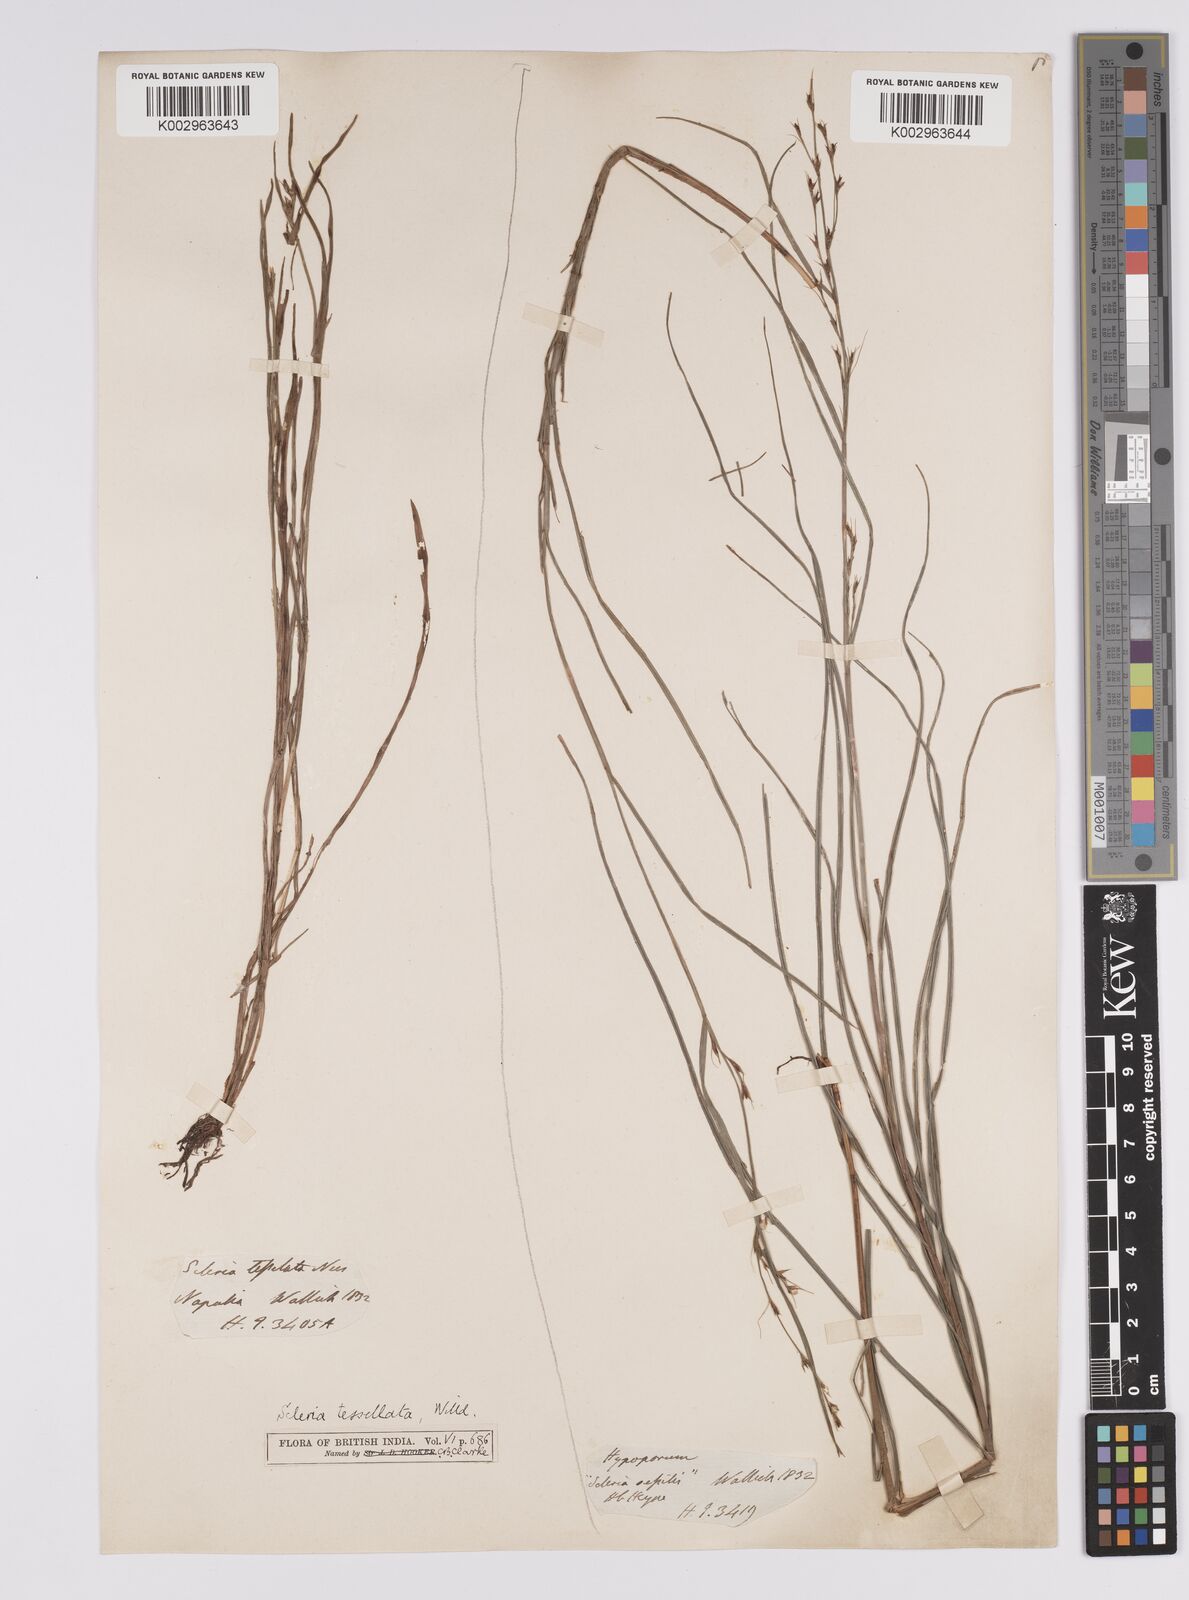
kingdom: Plantae
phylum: Tracheophyta
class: Liliopsida
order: Poales
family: Cyperaceae
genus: Scleria
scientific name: Scleria lithosperma
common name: Florida keys nut-rush
